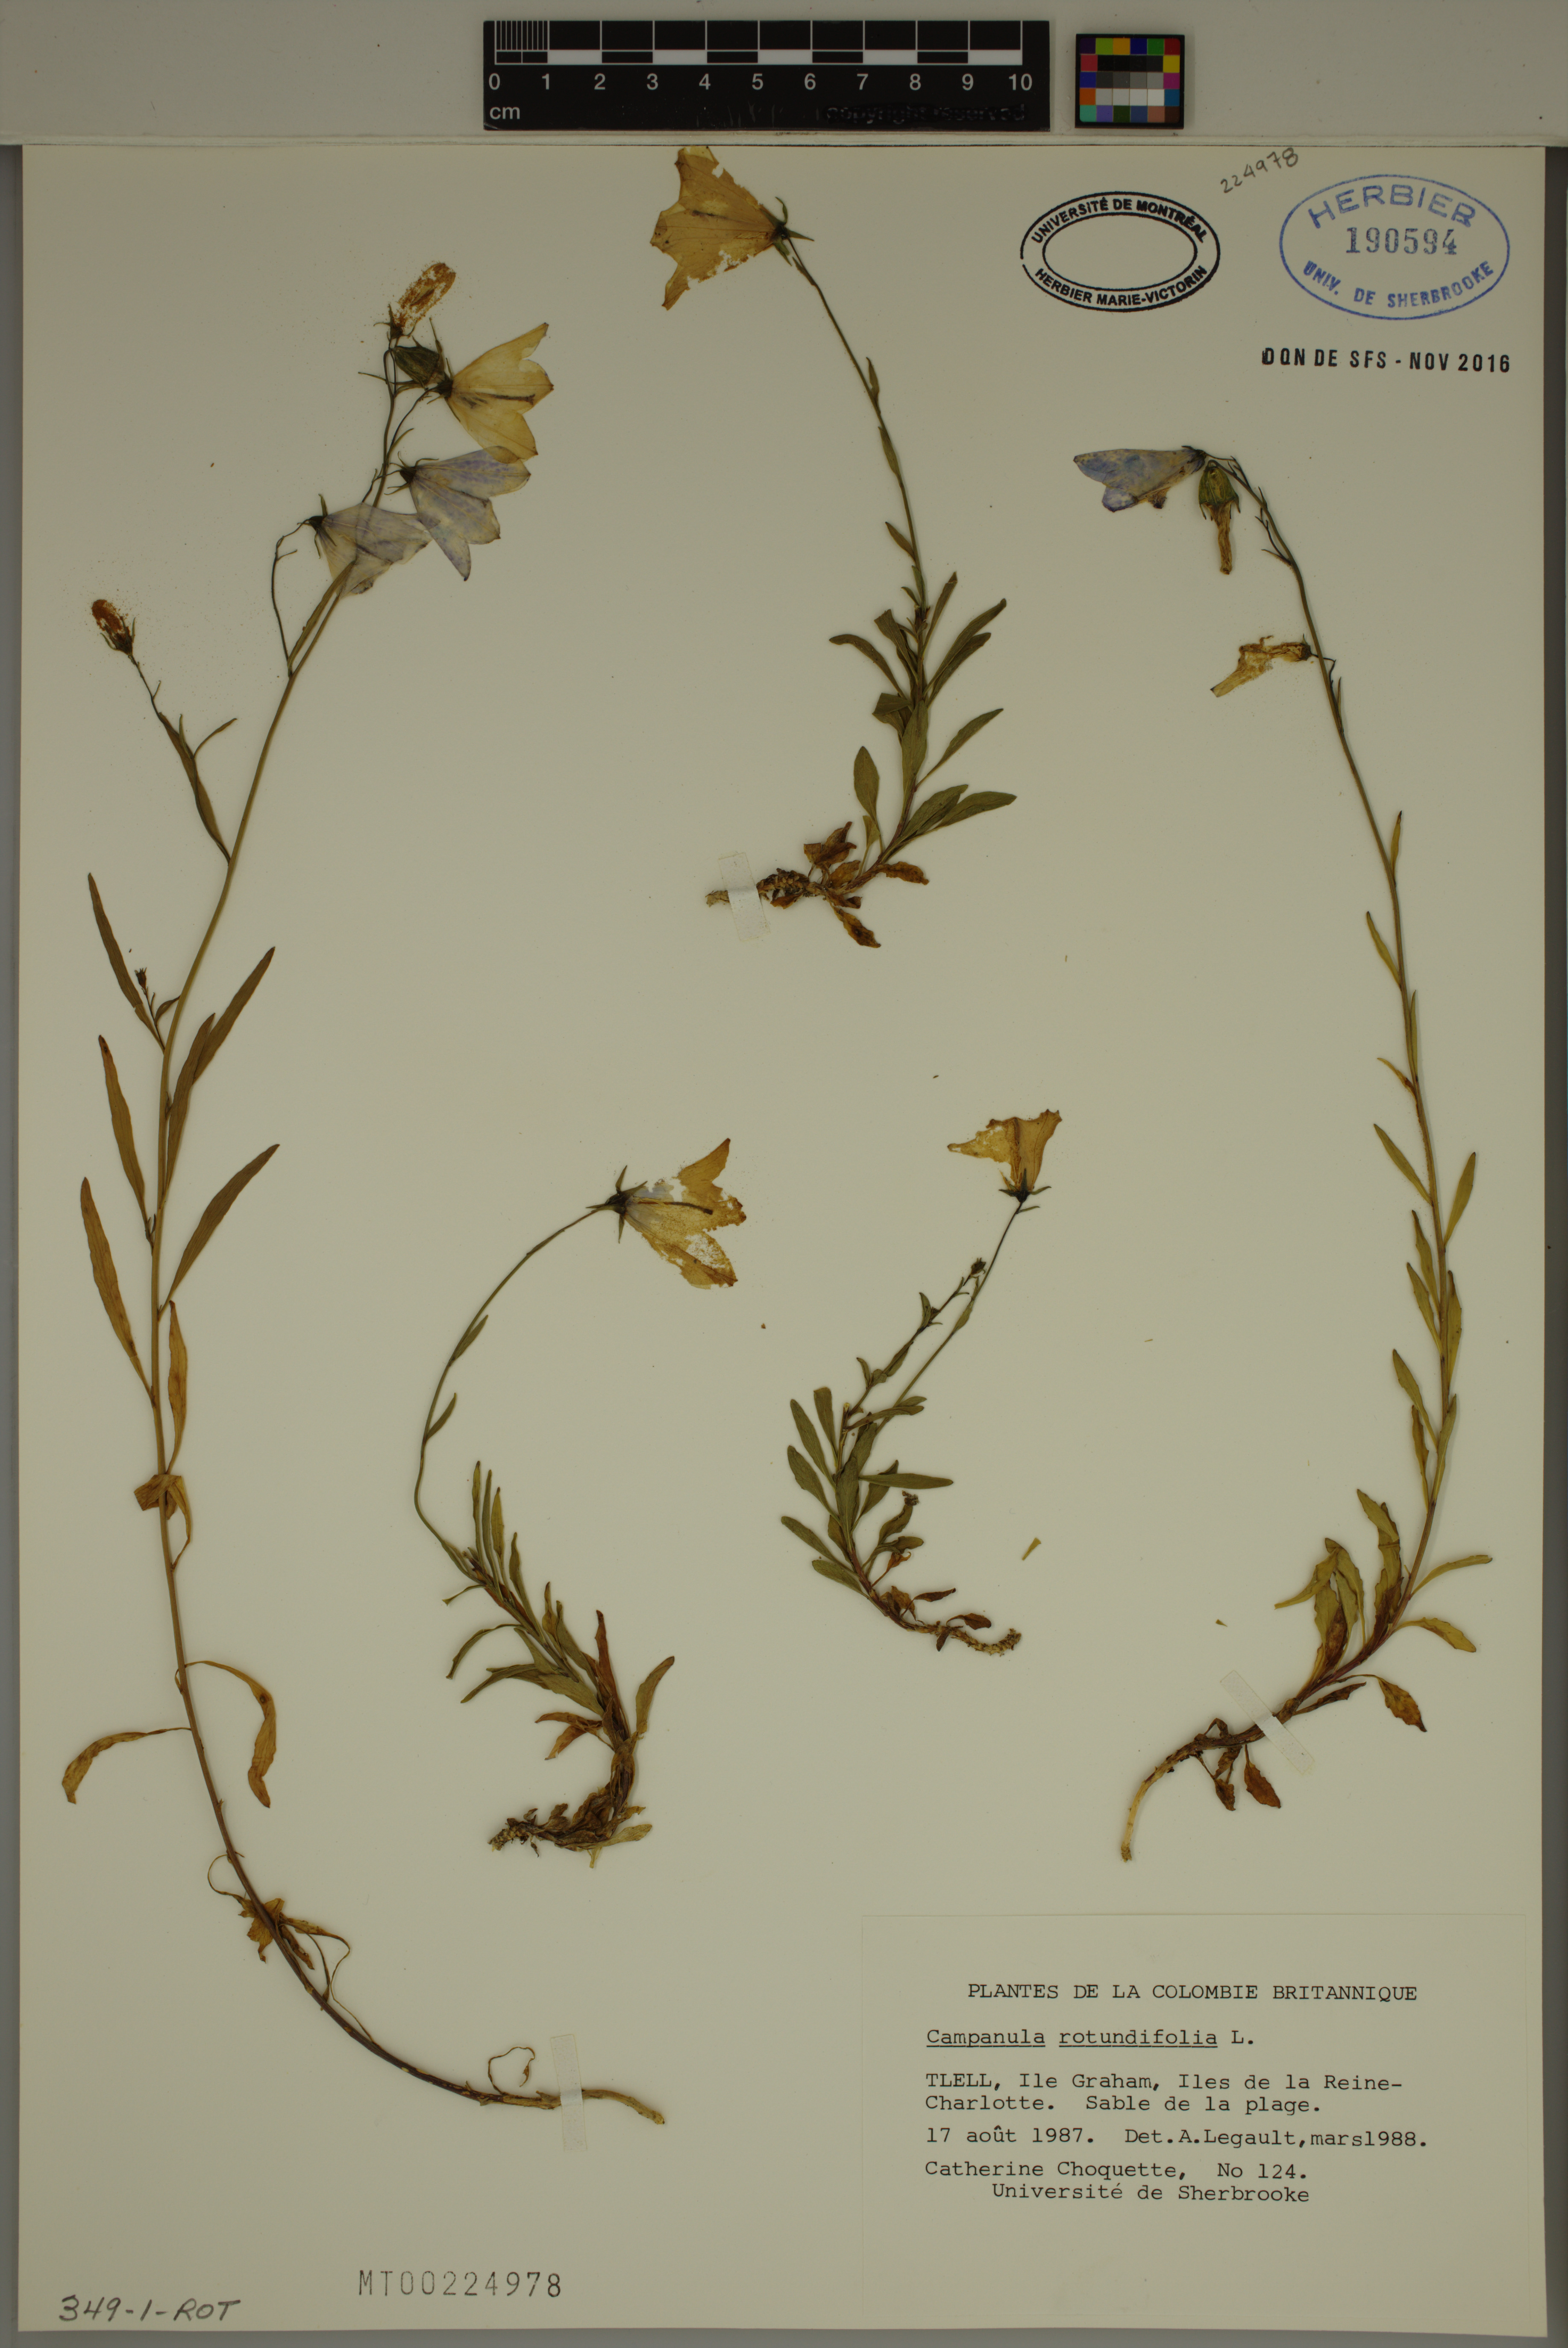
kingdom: Plantae
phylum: Tracheophyta
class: Magnoliopsida
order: Asterales
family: Campanulaceae
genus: Campanula
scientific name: Campanula rotundifolia
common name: Harebell
